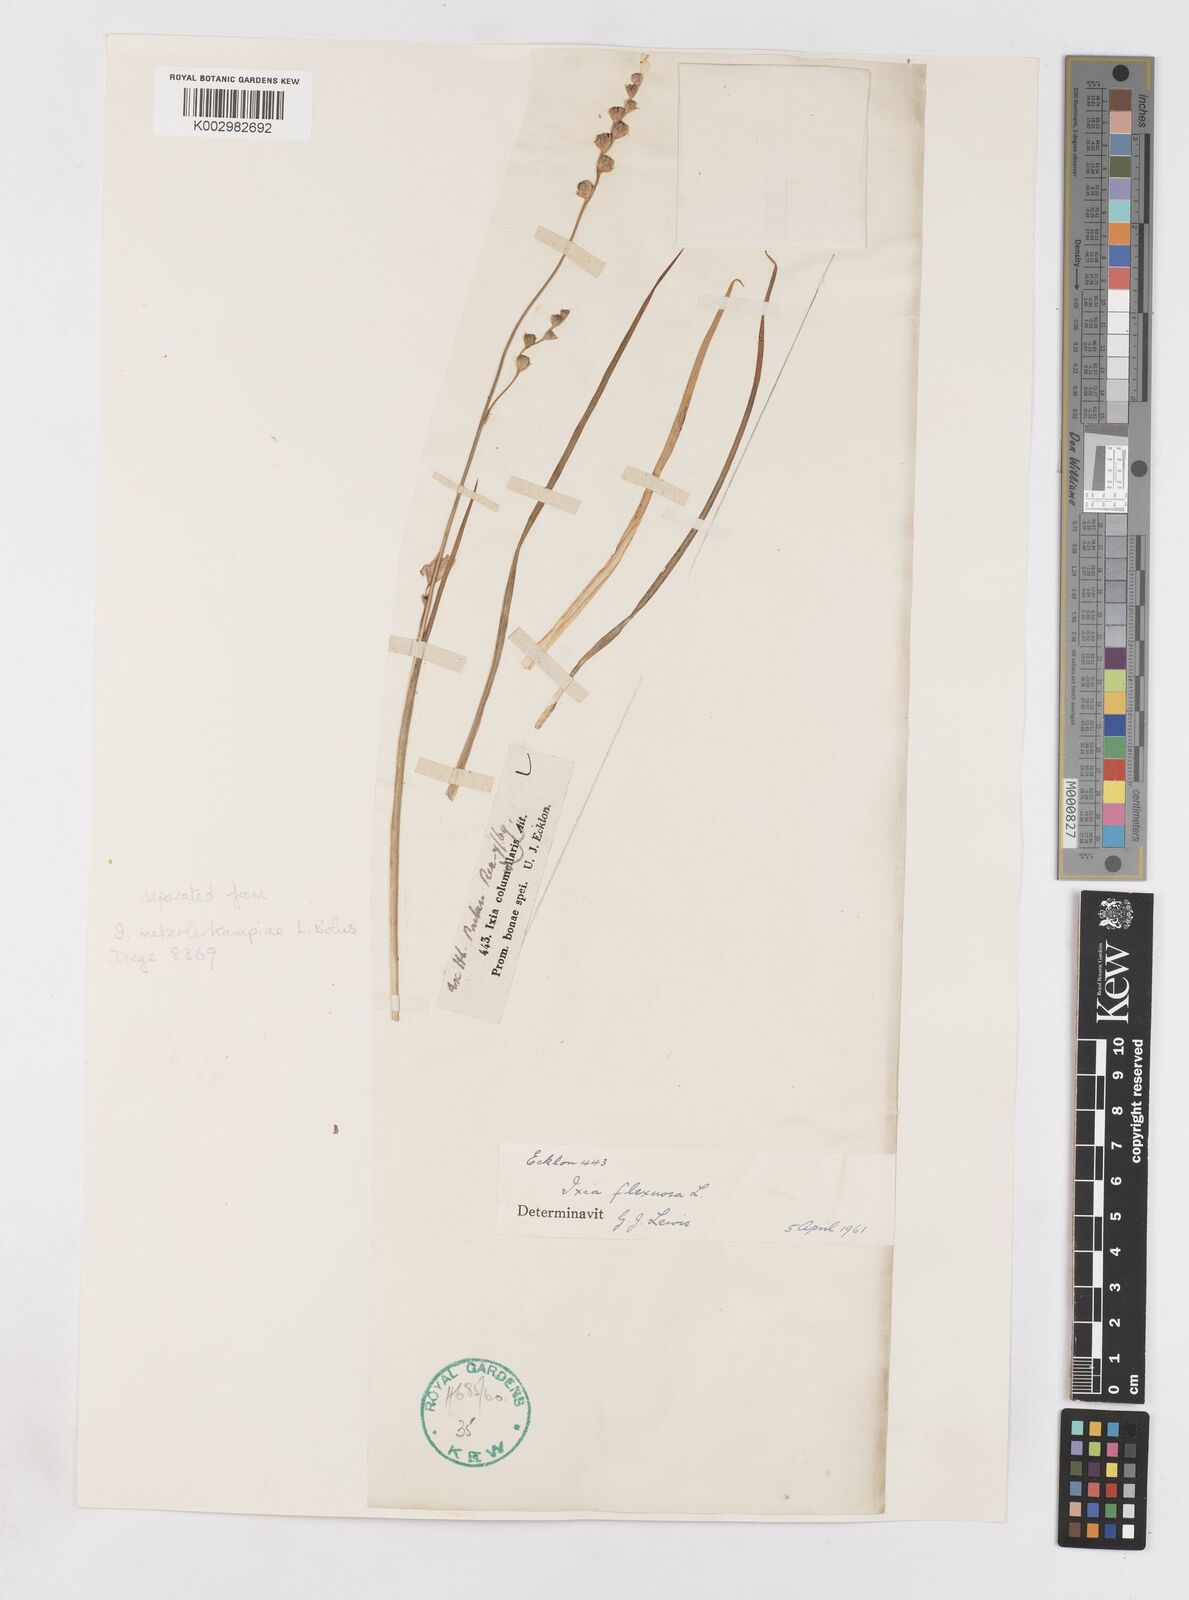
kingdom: Plantae
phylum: Tracheophyta
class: Liliopsida
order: Asparagales
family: Iridaceae
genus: Ixia
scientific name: Ixia flexuosa
